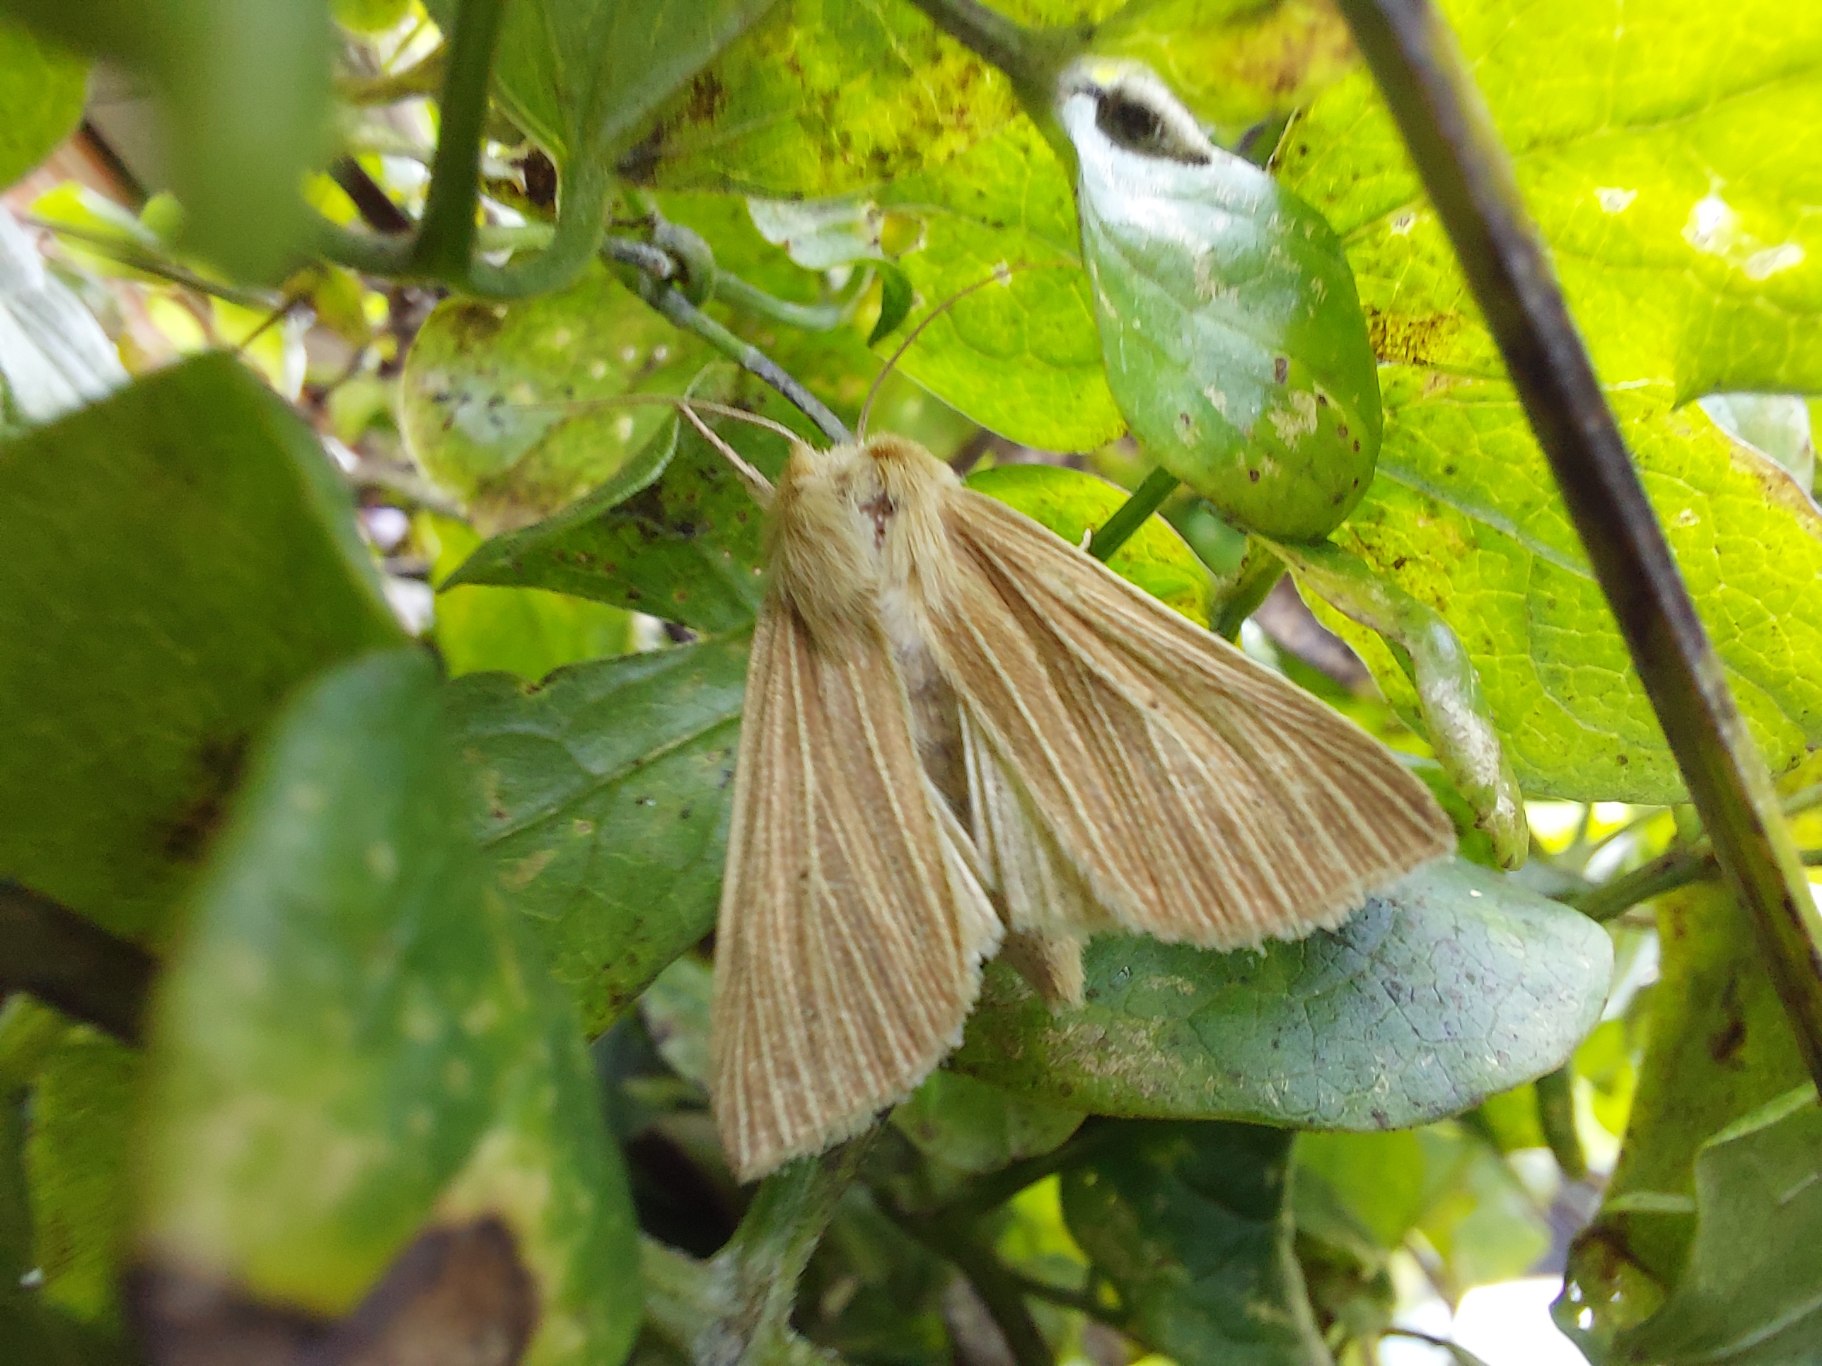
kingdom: Animalia
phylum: Arthropoda
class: Insecta
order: Lepidoptera
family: Noctuidae
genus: Mythimna
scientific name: Mythimna pallens
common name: Halmugle
